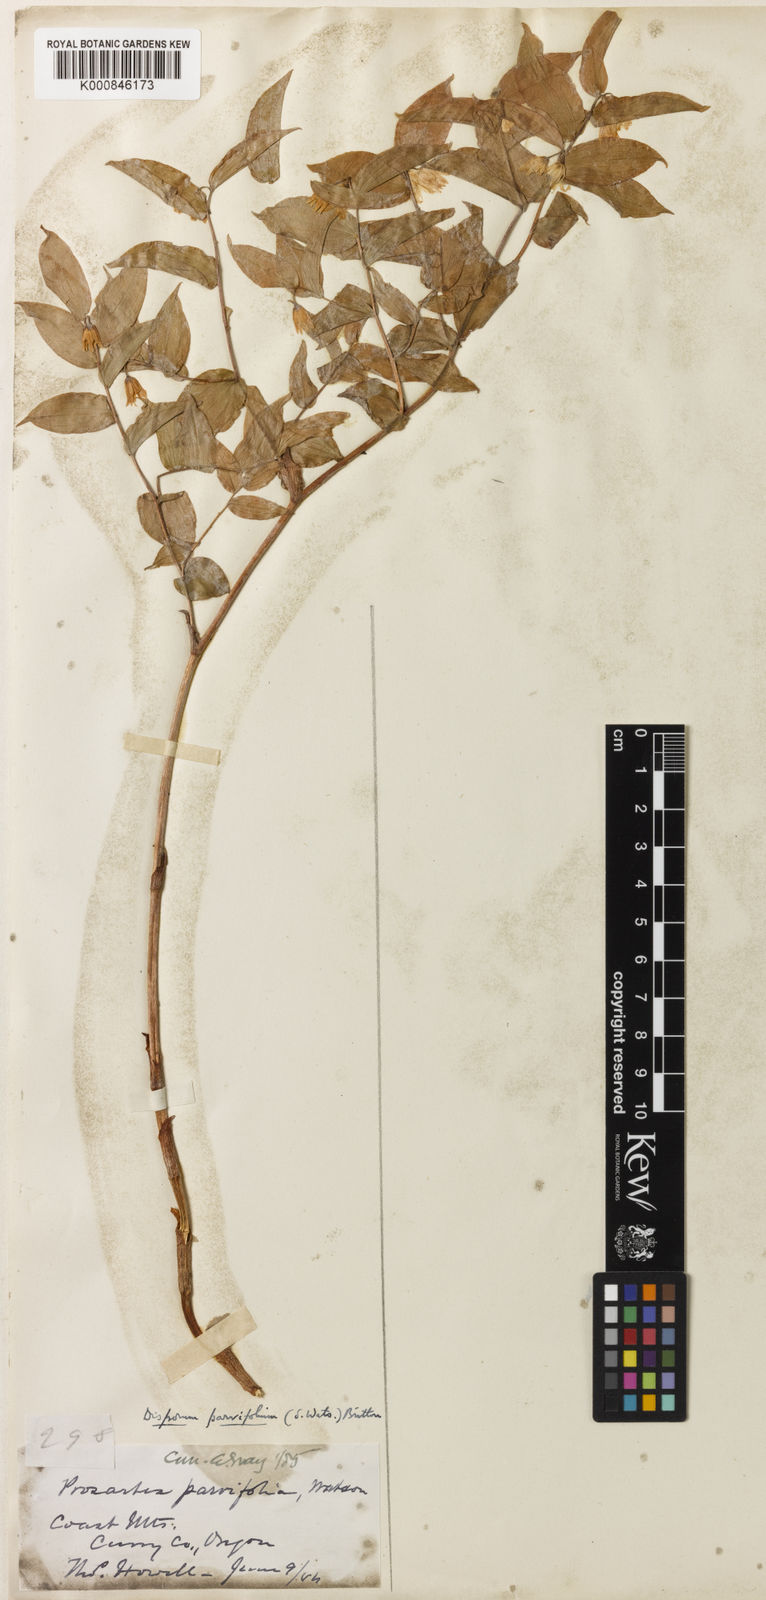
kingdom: Plantae
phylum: Tracheophyta
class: Liliopsida
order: Liliales
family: Liliaceae
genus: Prosartes
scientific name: Prosartes parvifolia
